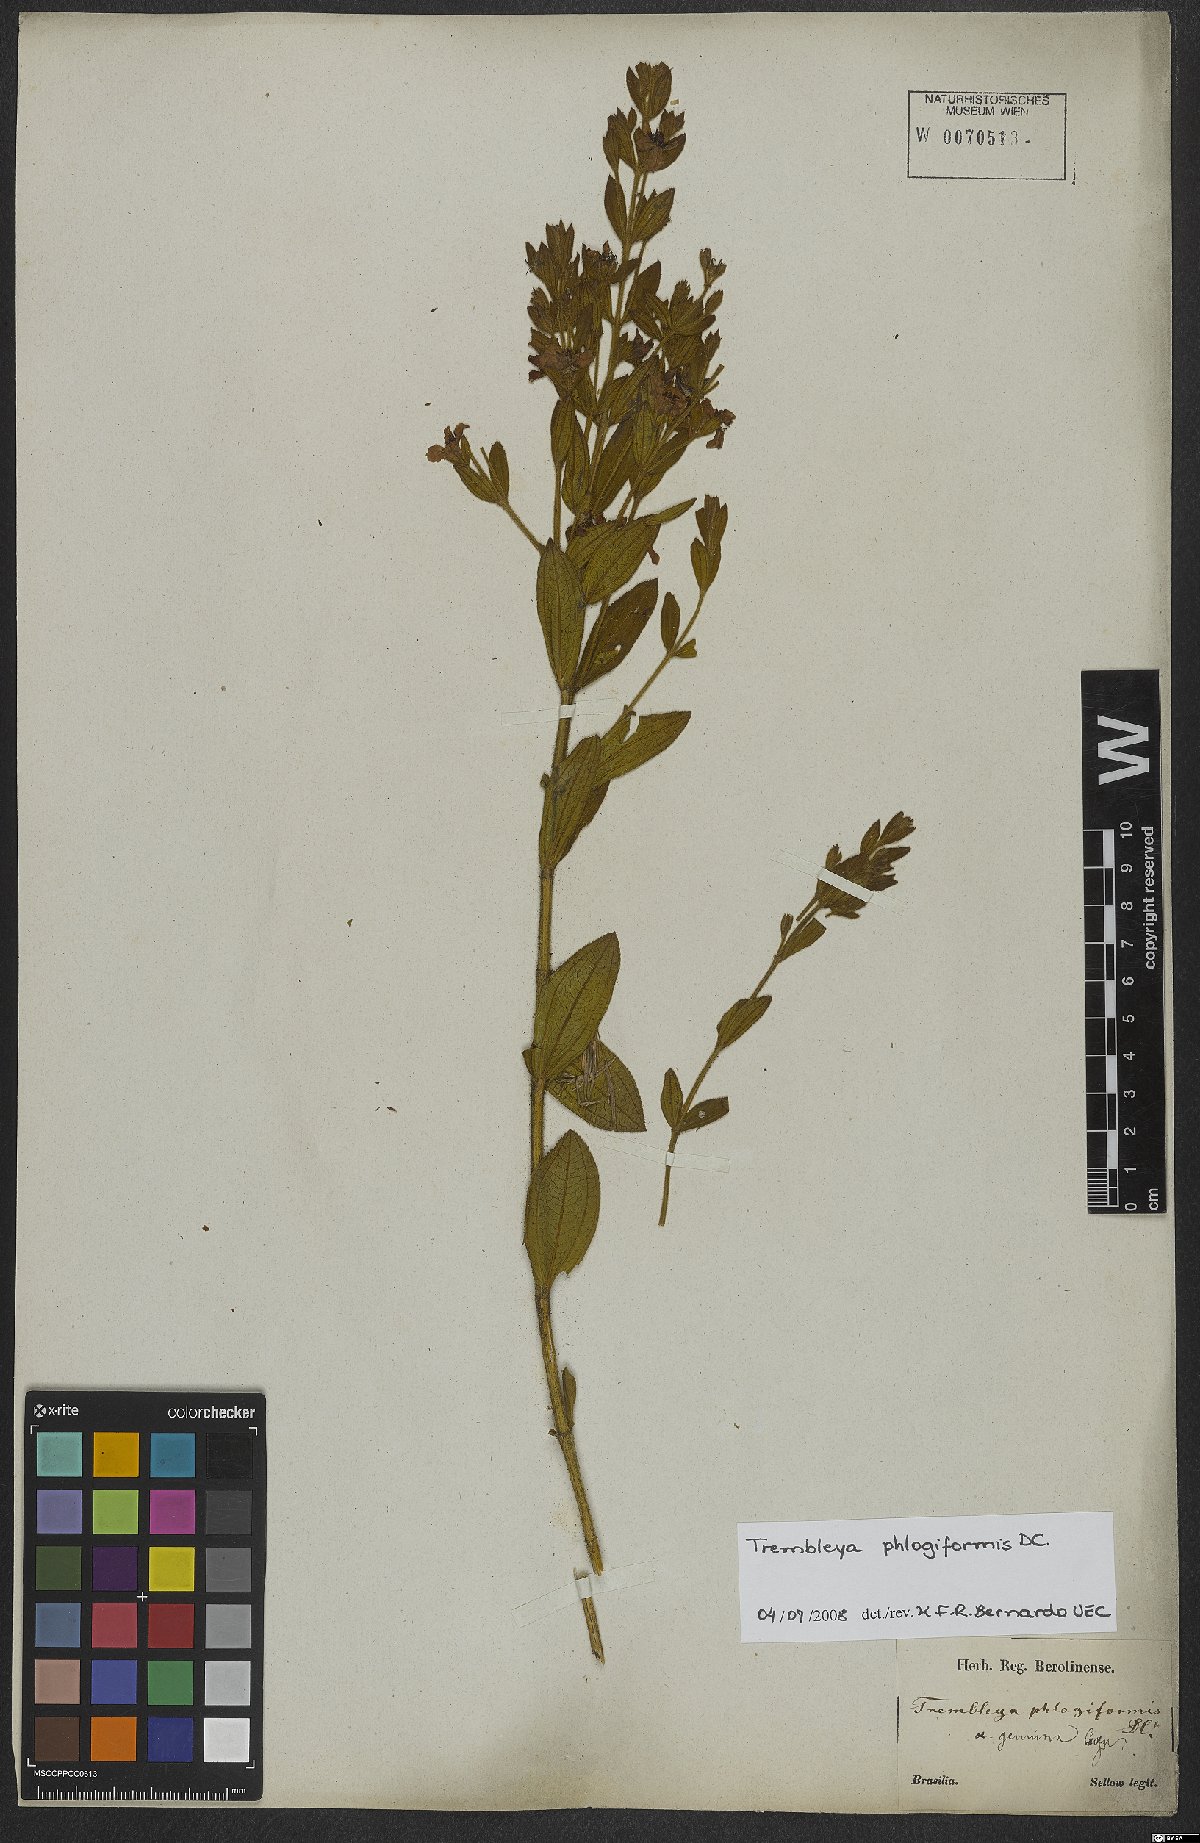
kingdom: Plantae
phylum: Tracheophyta
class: Magnoliopsida
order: Myrtales
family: Melastomataceae
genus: Microlicia
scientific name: Microlicia phlogiformis
